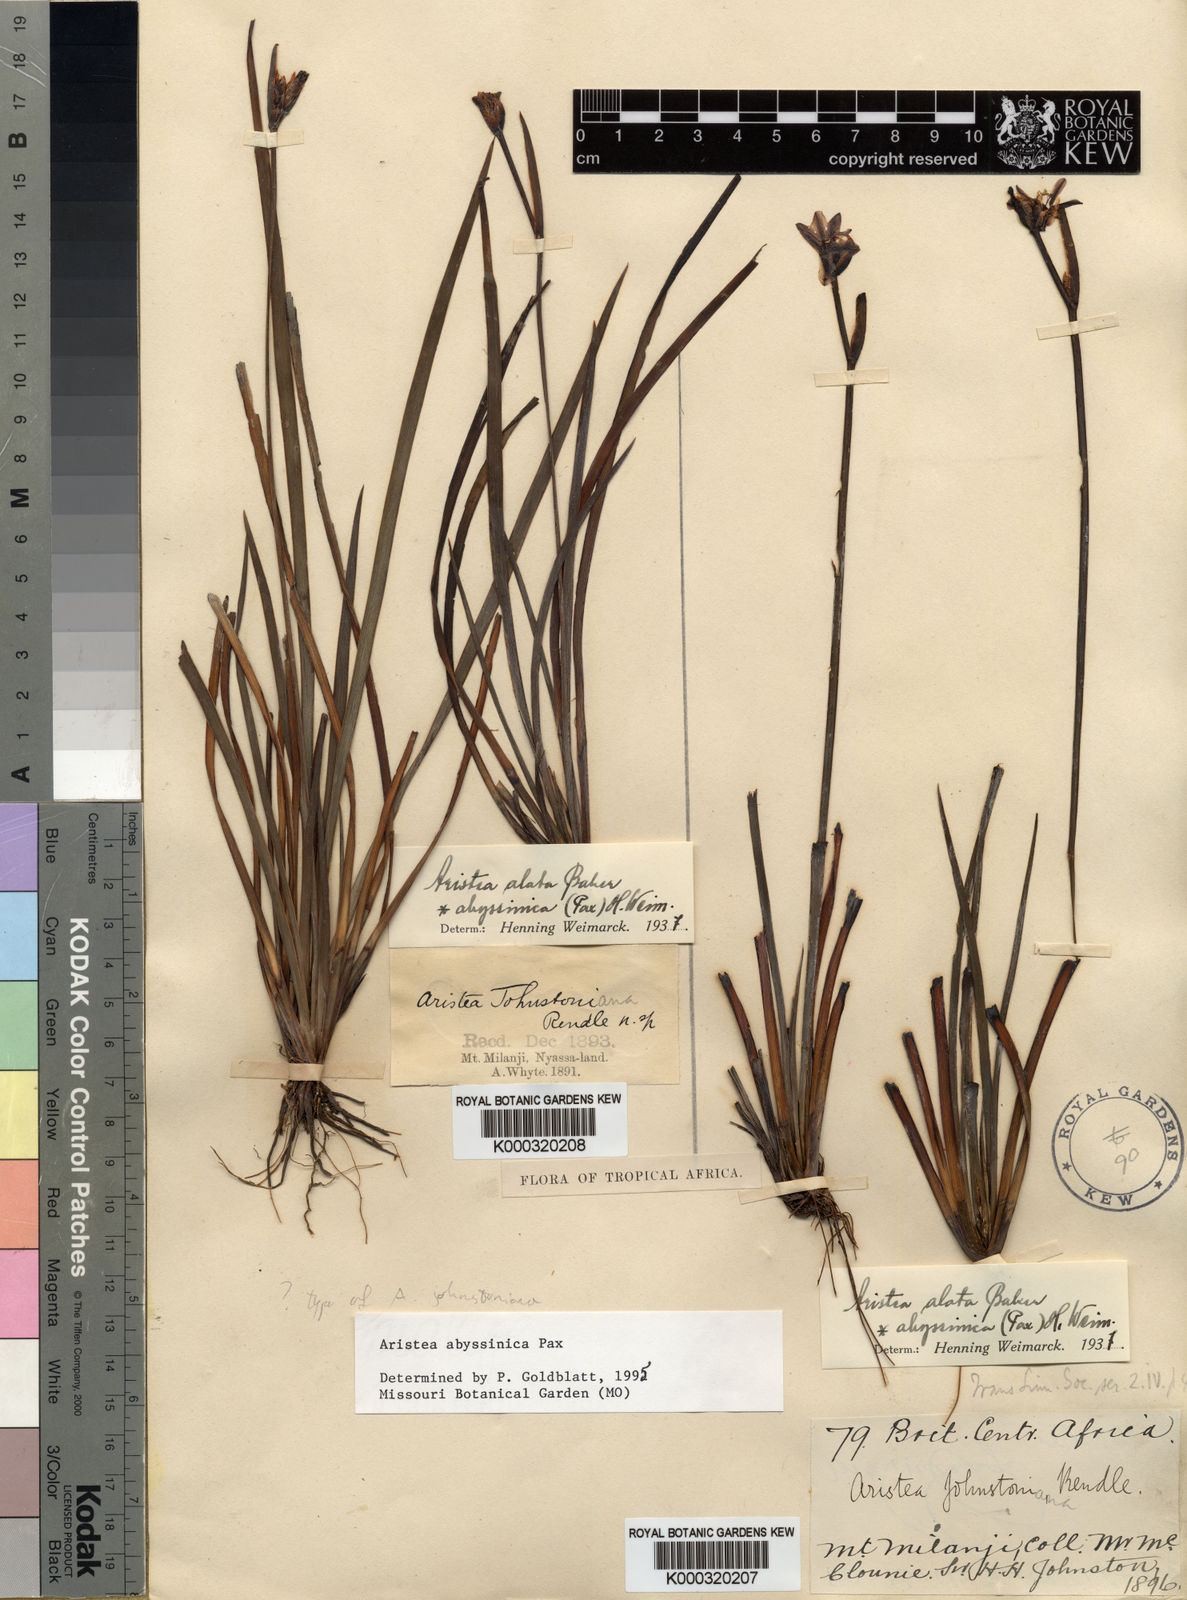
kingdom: Plantae
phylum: Tracheophyta
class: Liliopsida
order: Asparagales
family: Iridaceae
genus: Aristea
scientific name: Aristea abyssinica
